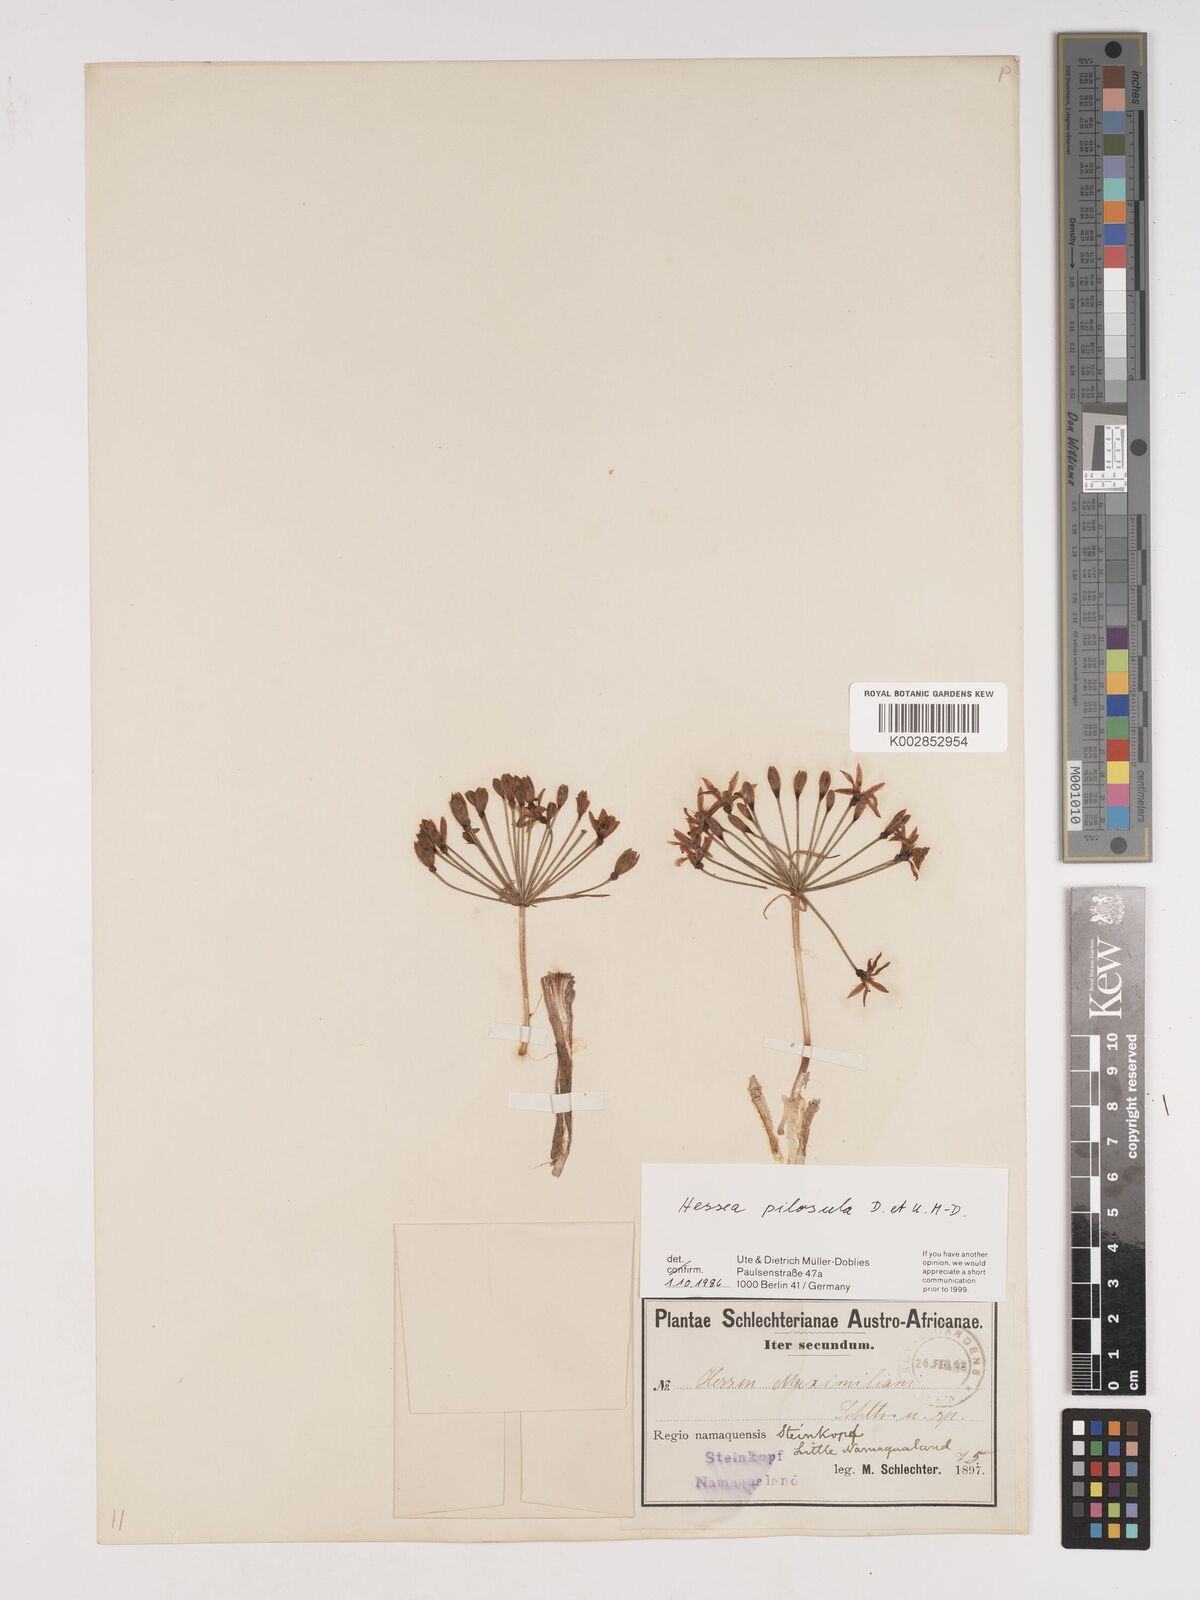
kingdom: Plantae
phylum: Tracheophyta
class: Liliopsida
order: Asparagales
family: Amaryllidaceae
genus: Hessea
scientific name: Hessea pilosula
